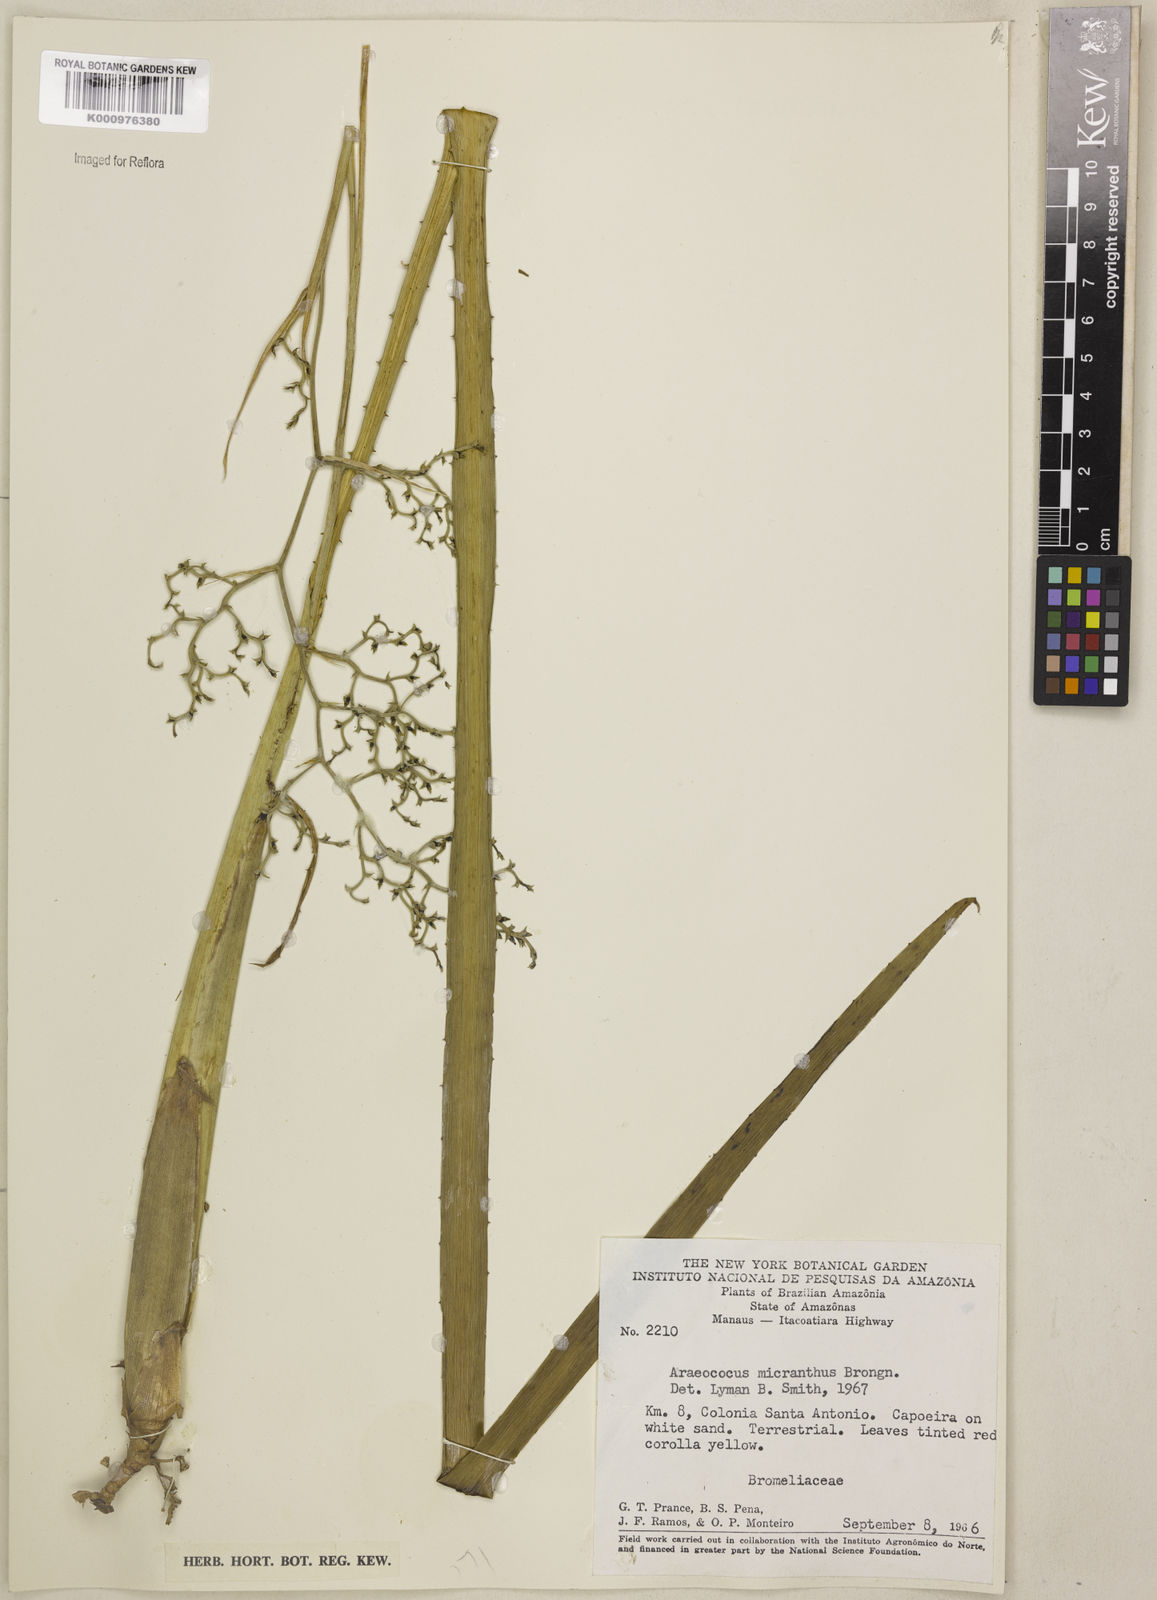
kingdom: Plantae
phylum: Tracheophyta
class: Liliopsida
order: Poales
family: Bromeliaceae
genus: Araeococcus
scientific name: Araeococcus micranthus
